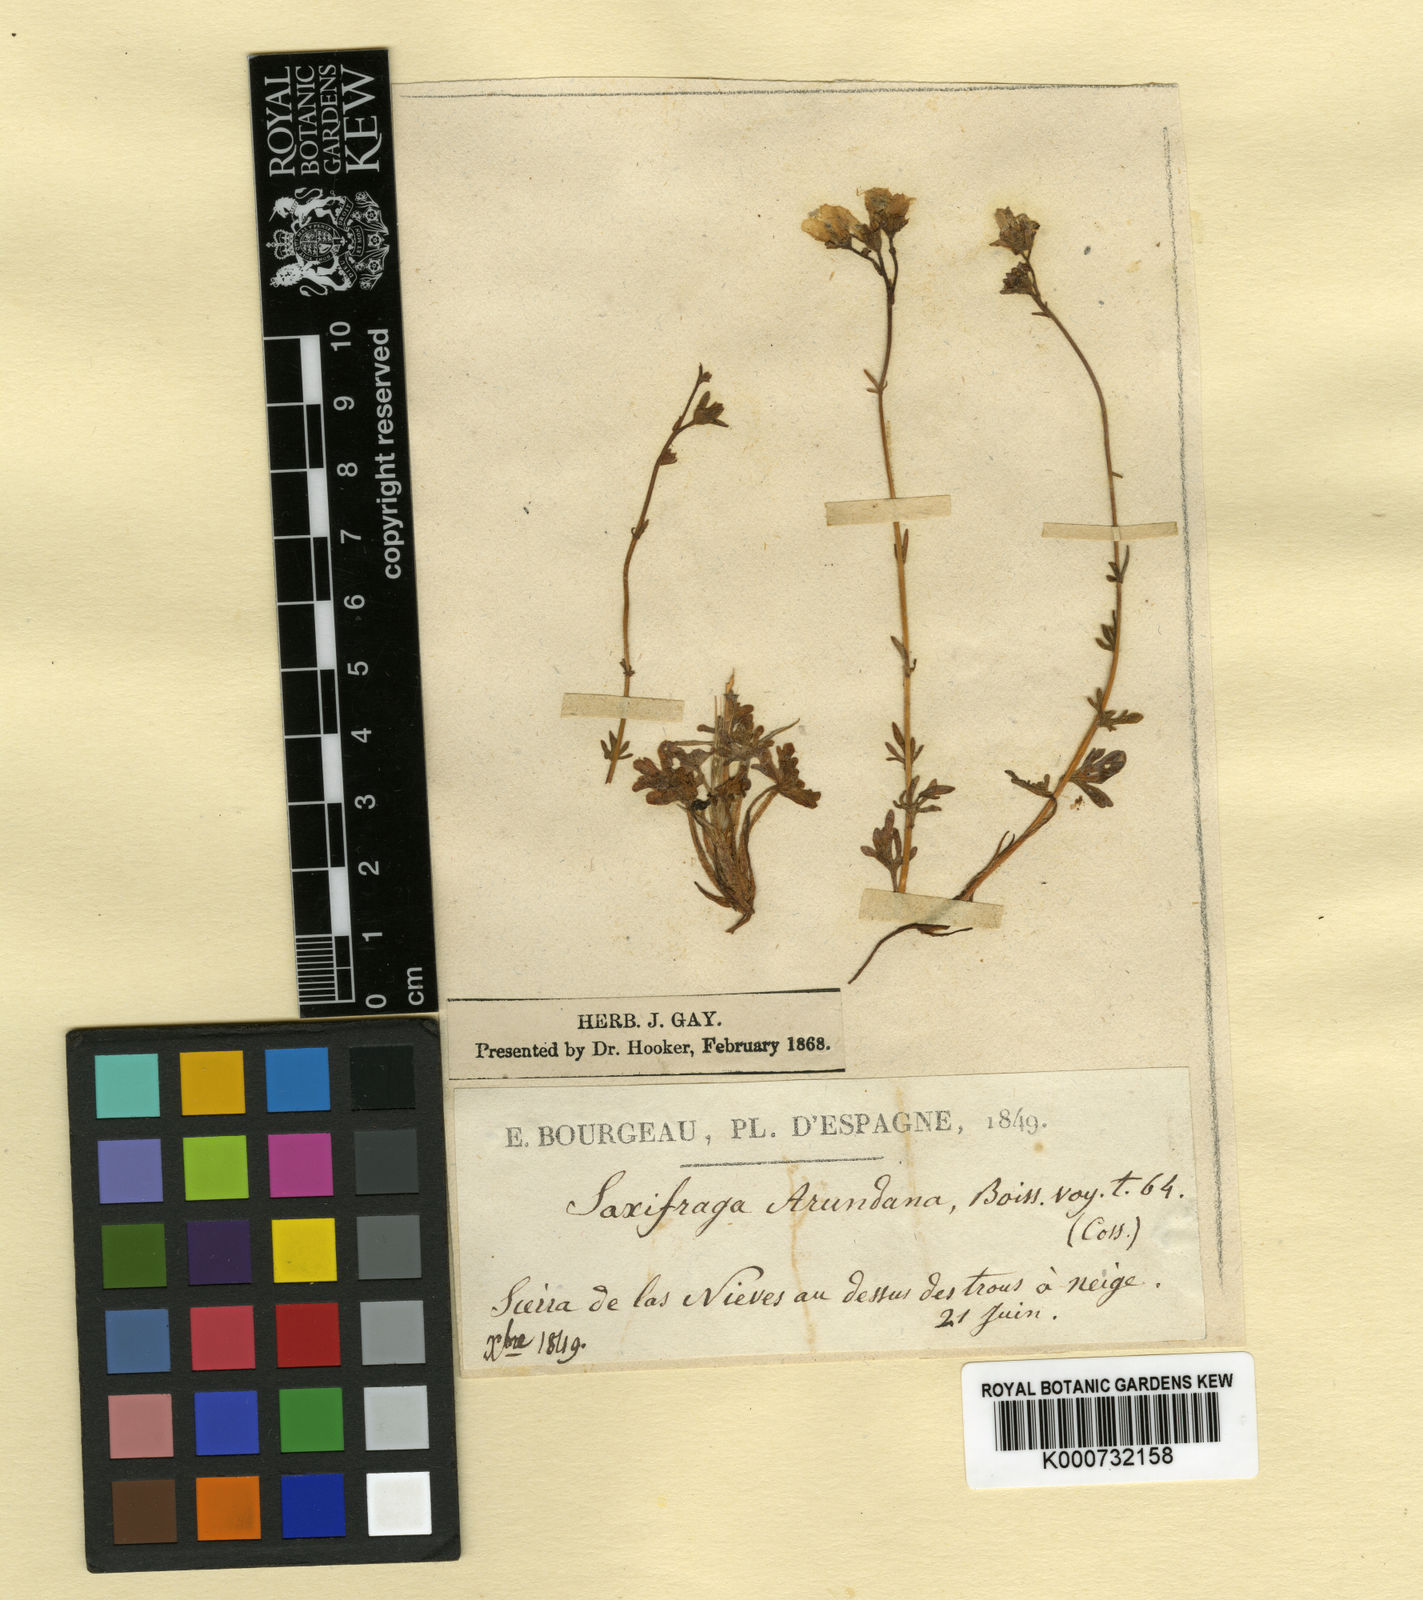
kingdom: Plantae
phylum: Tracheophyta
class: Magnoliopsida
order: Saxifragales
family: Saxifragaceae
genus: Saxifraga
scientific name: Saxifraga
